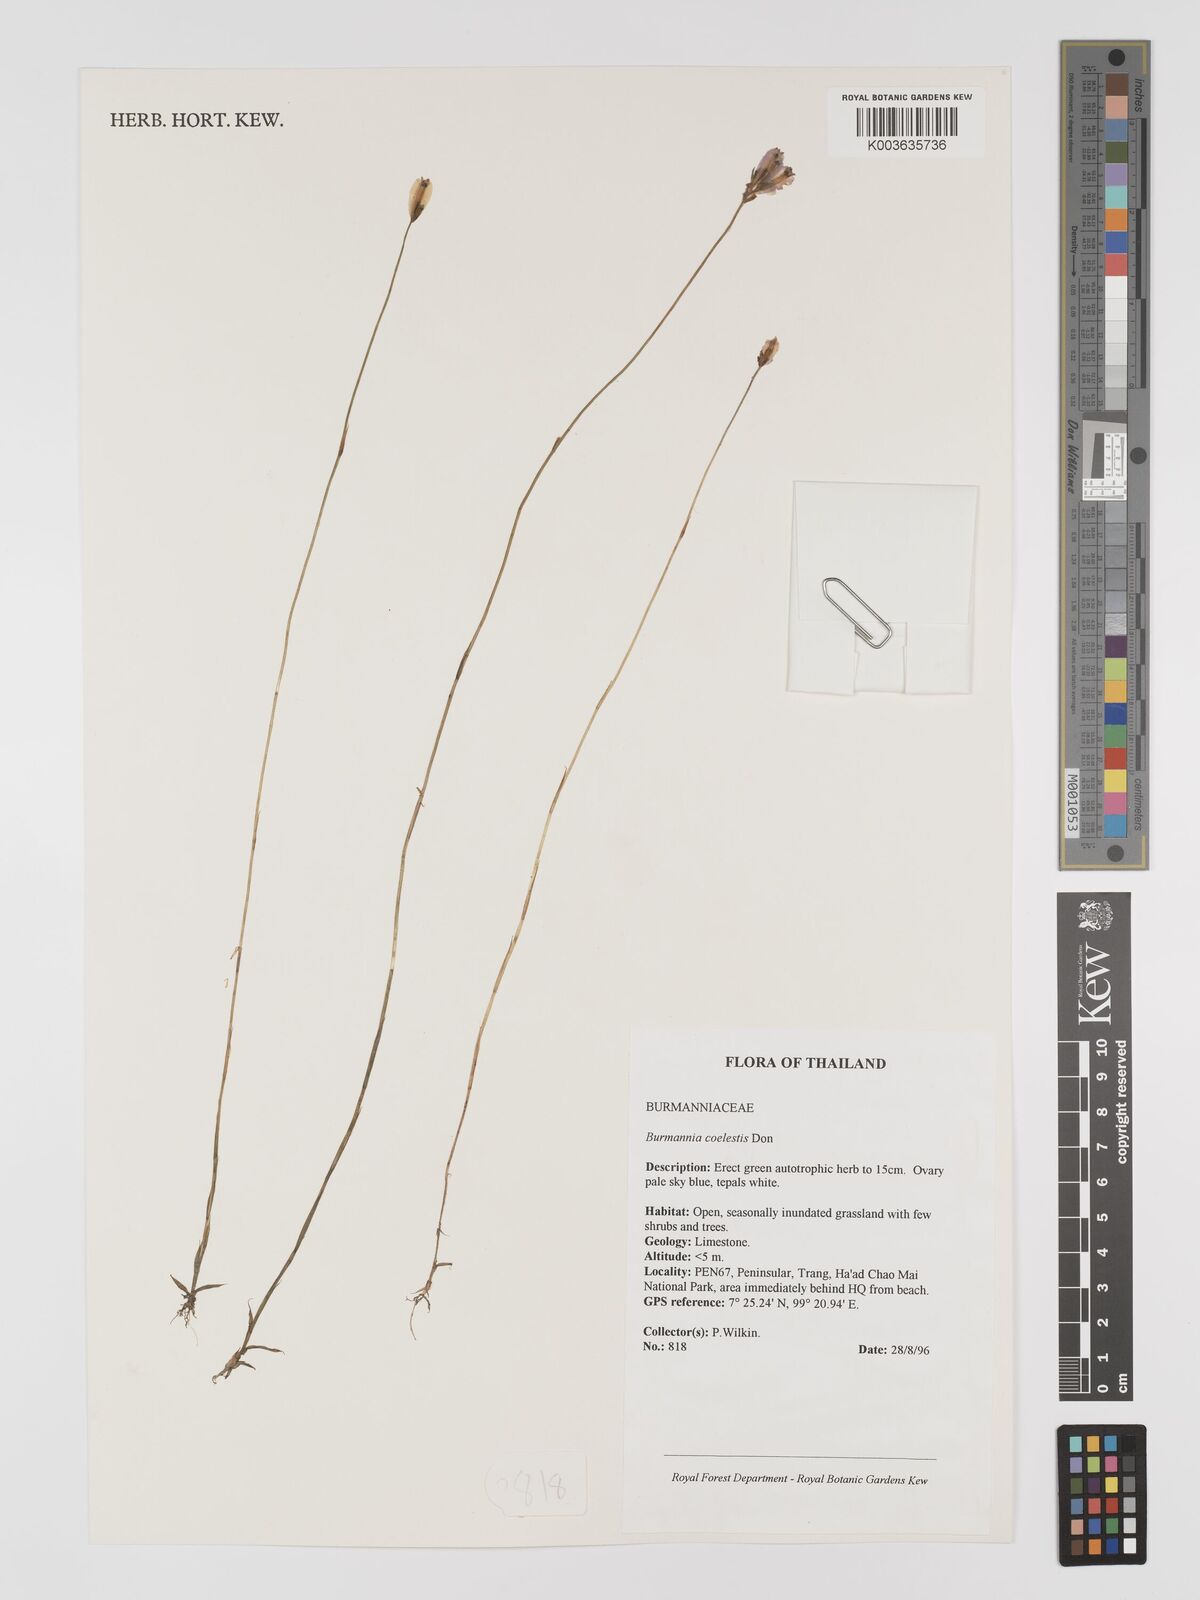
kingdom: Plantae
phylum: Tracheophyta
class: Liliopsida
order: Dioscoreales
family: Burmanniaceae
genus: Burmannia
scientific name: Burmannia coelestis
